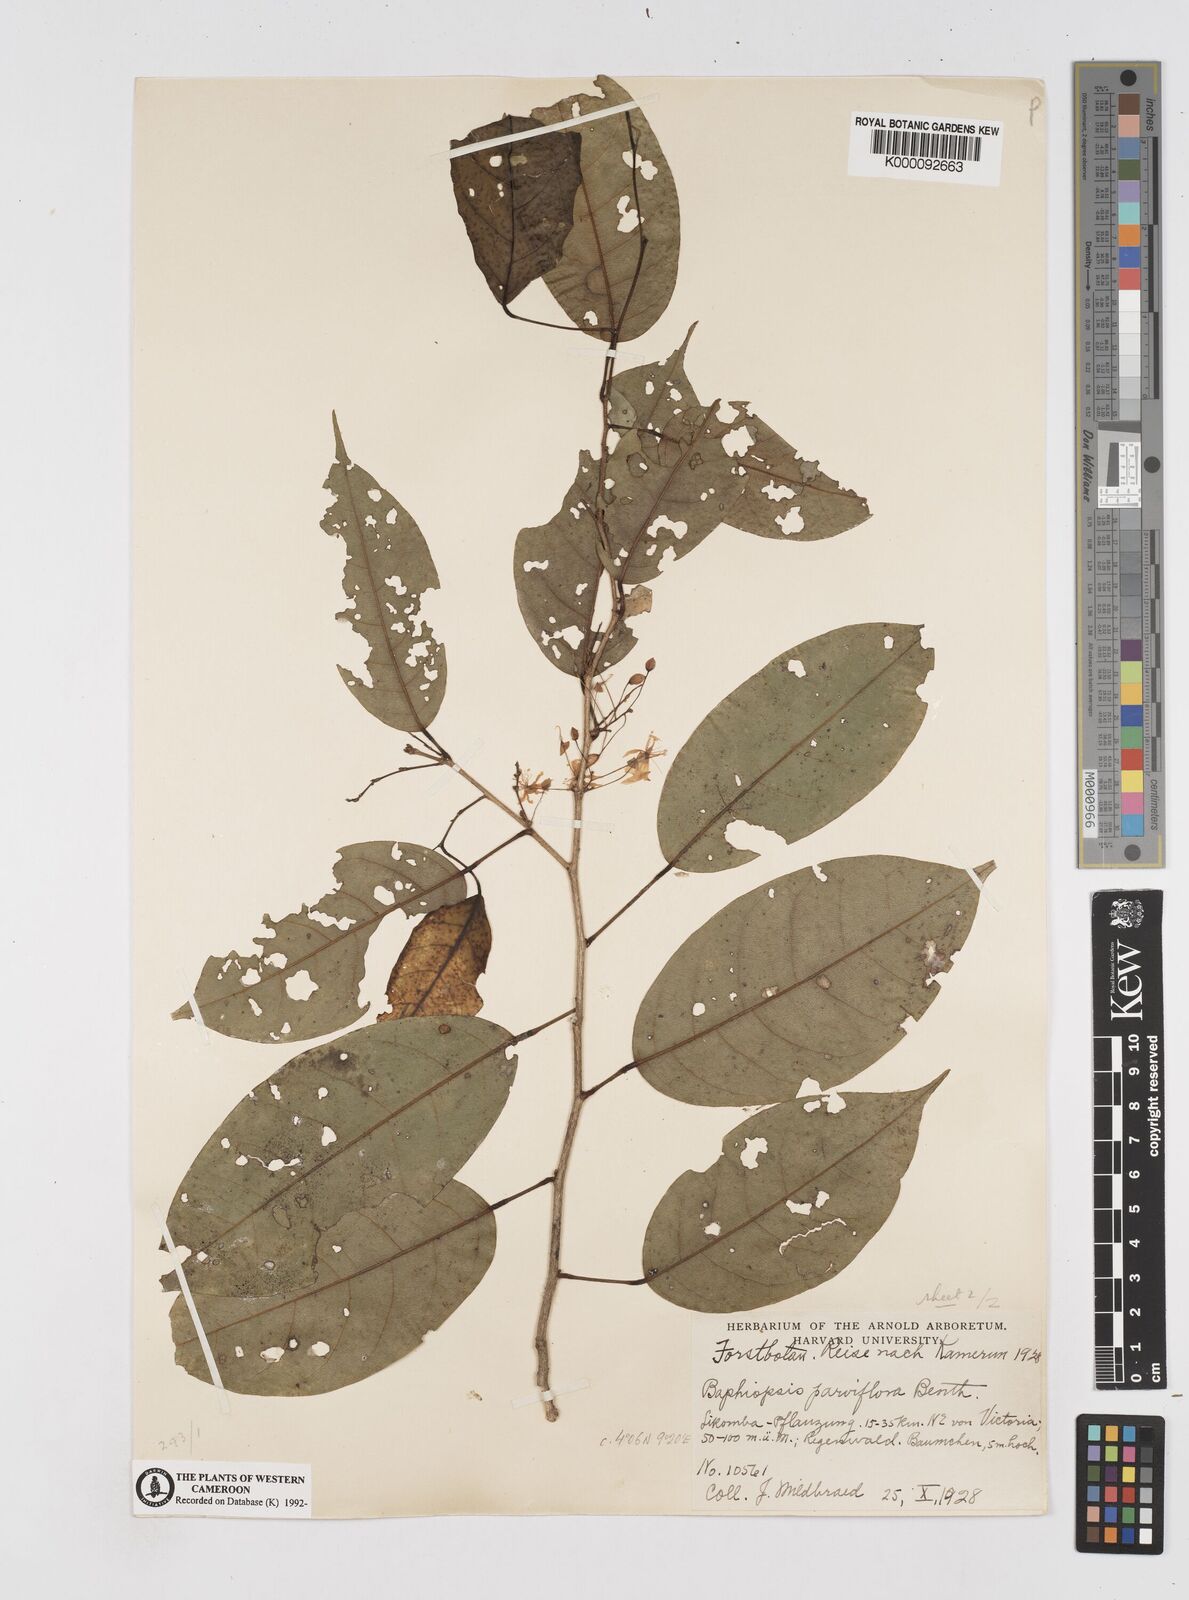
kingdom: Plantae
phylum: Tracheophyta
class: Magnoliopsida
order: Fabales
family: Fabaceae
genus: Baphiopsis
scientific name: Baphiopsis parviflora
